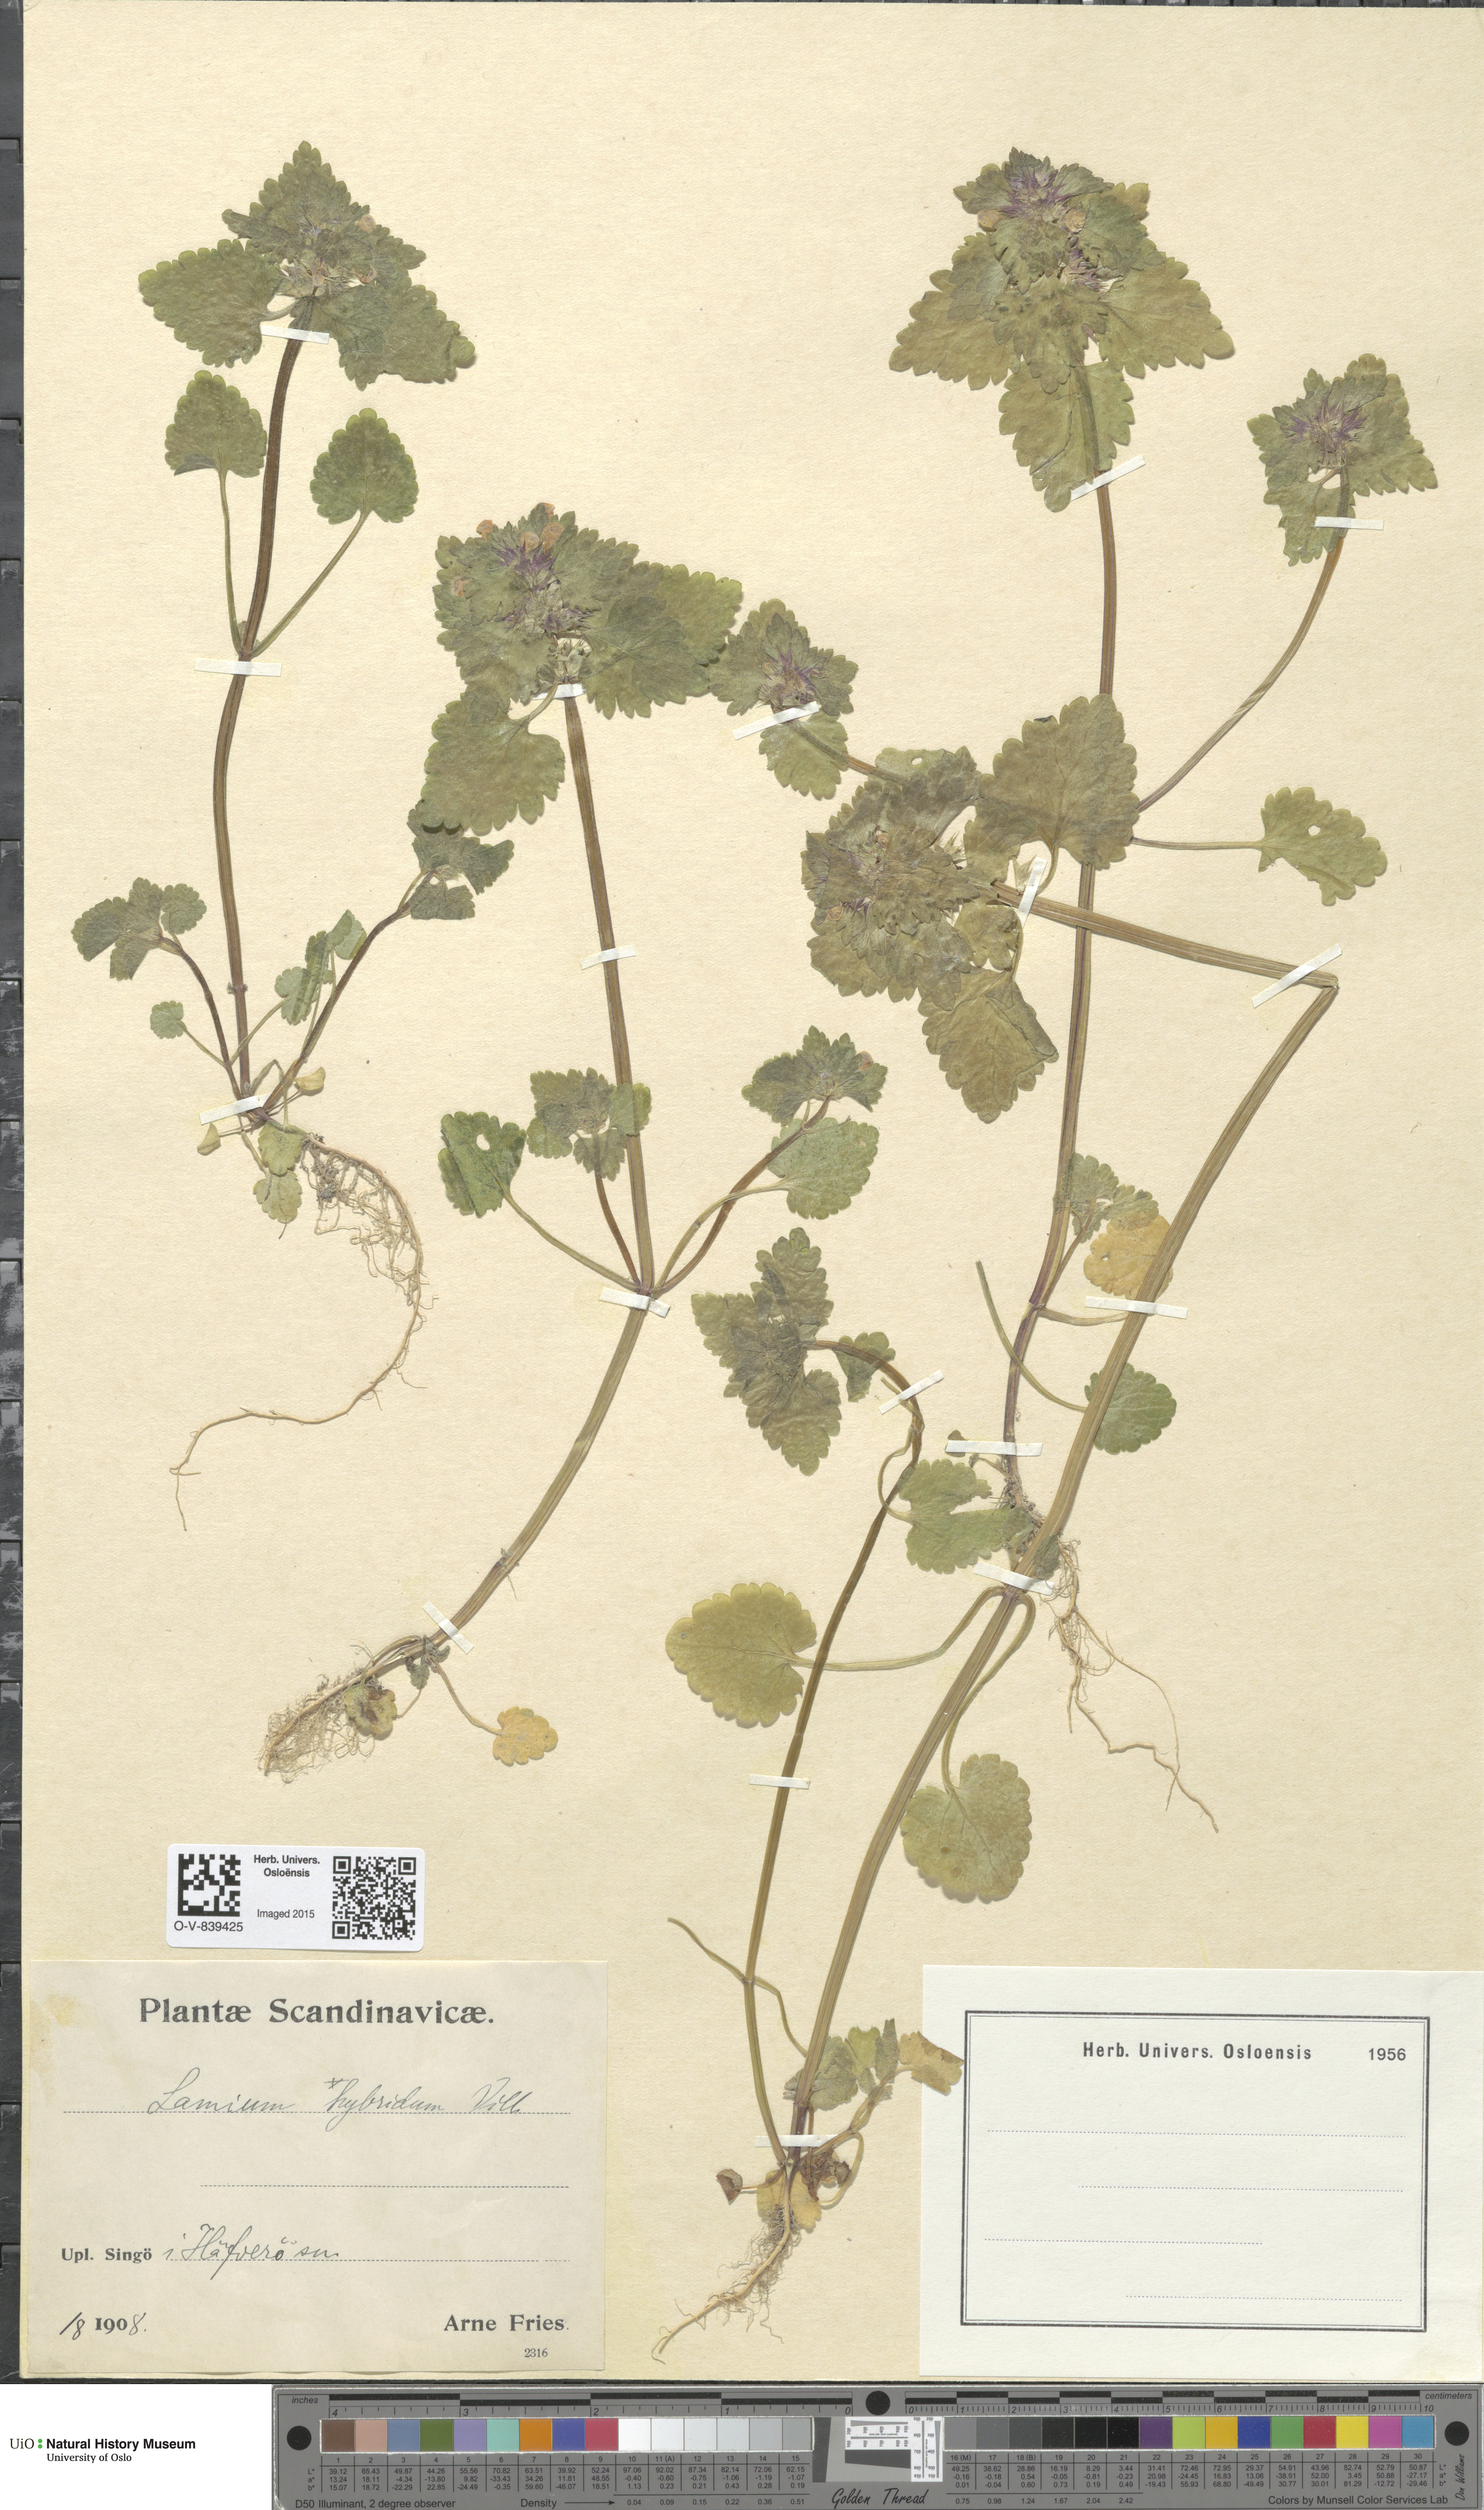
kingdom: Plantae
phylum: Tracheophyta
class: Magnoliopsida
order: Lamiales
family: Lamiaceae
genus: Lamium
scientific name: Lamium hybridum
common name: Cut-leaved dead-nettle
